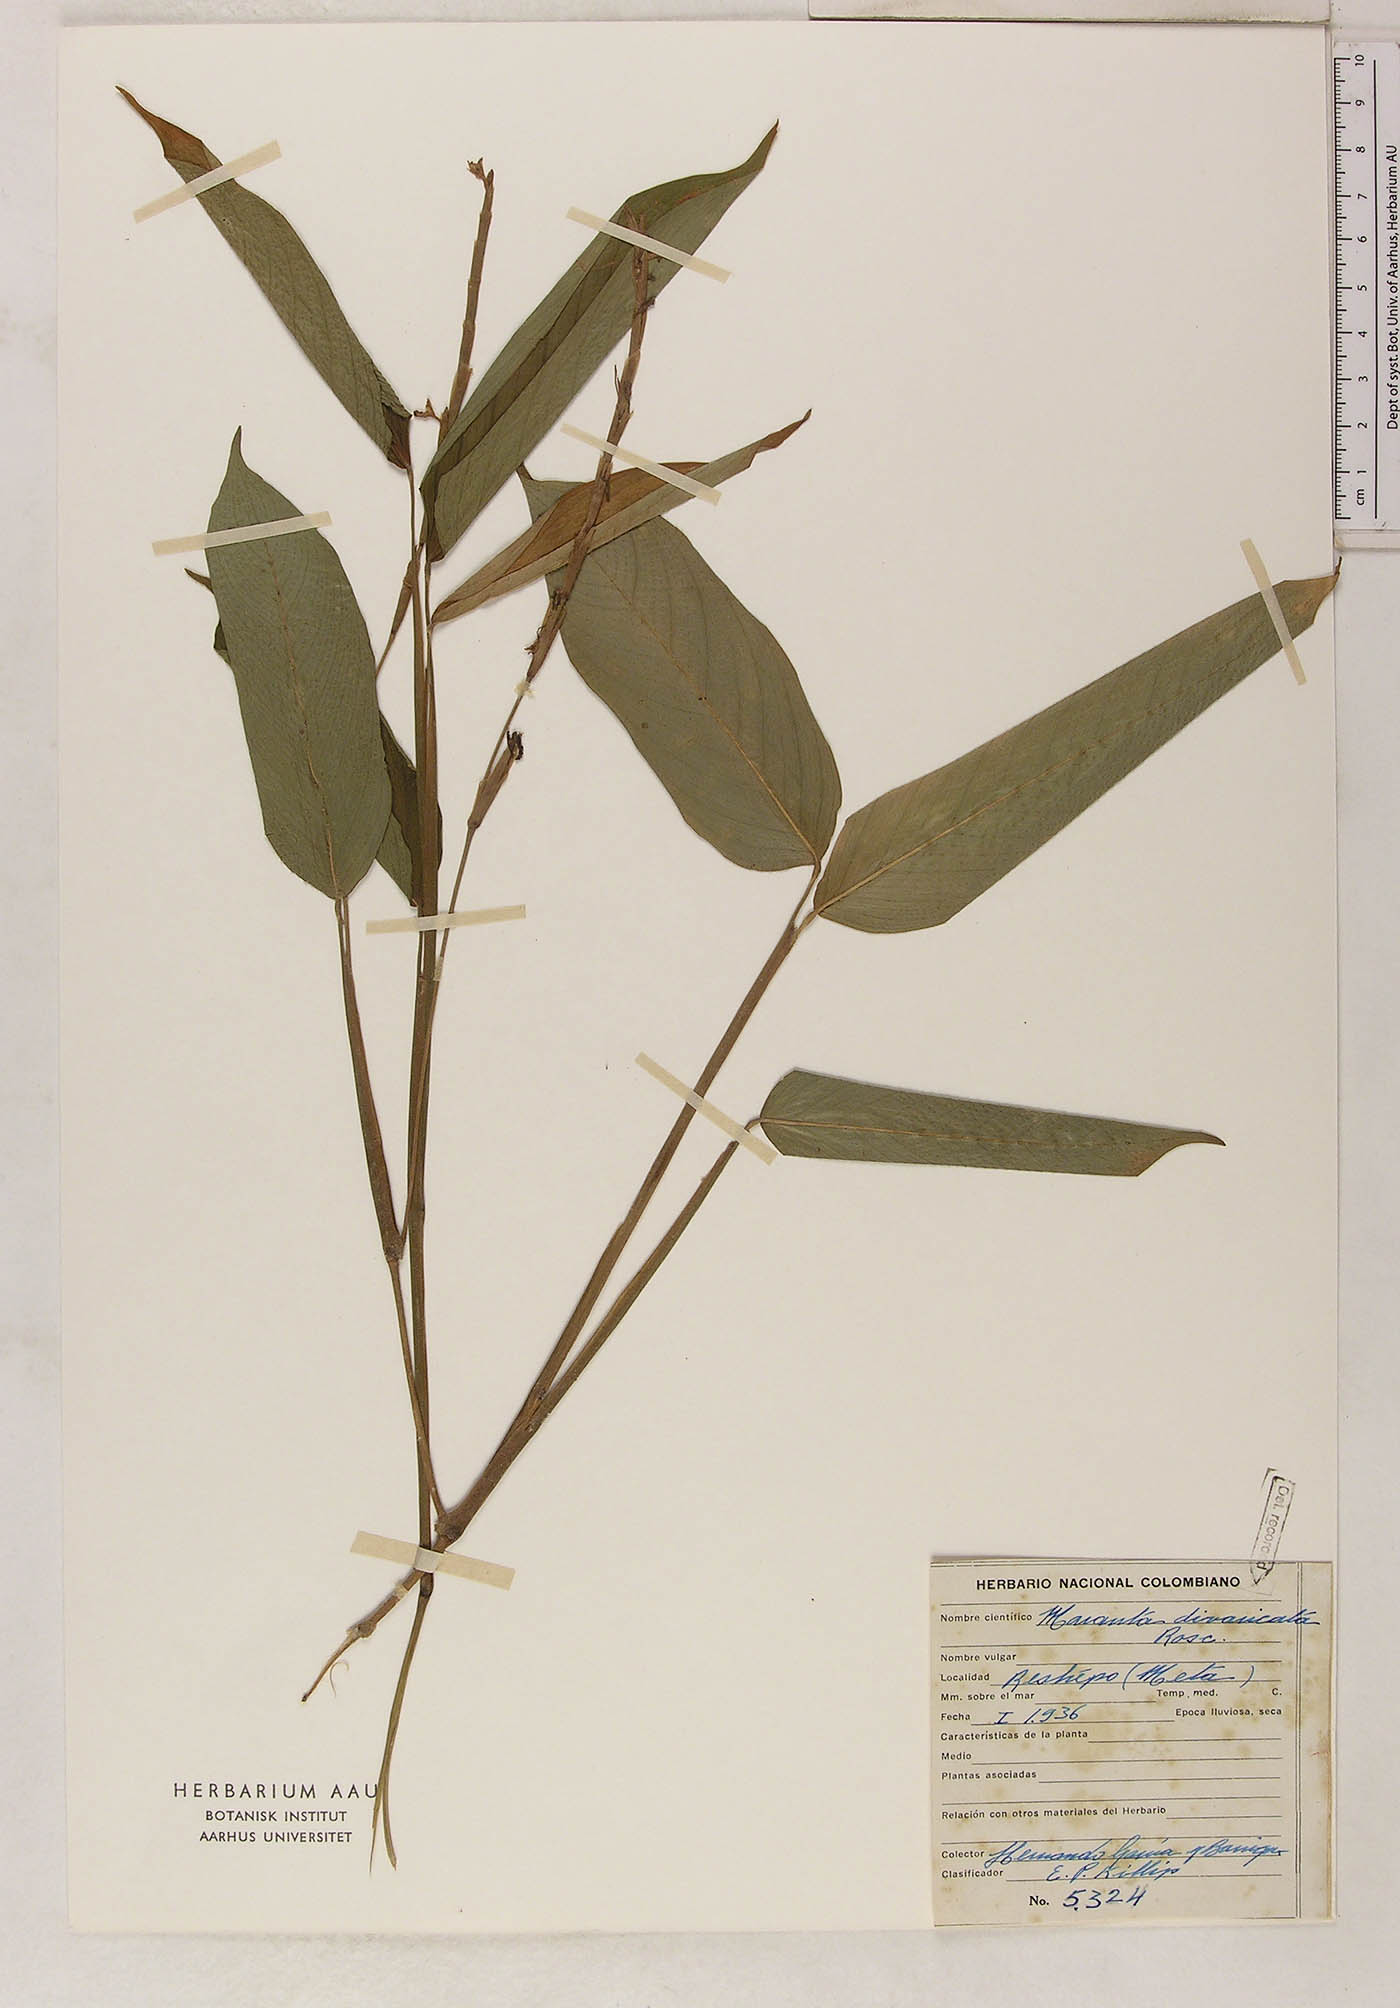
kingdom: Plantae
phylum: Tracheophyta
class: Liliopsida
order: Zingiberales
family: Marantaceae
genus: Maranta
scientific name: Maranta pulchra
